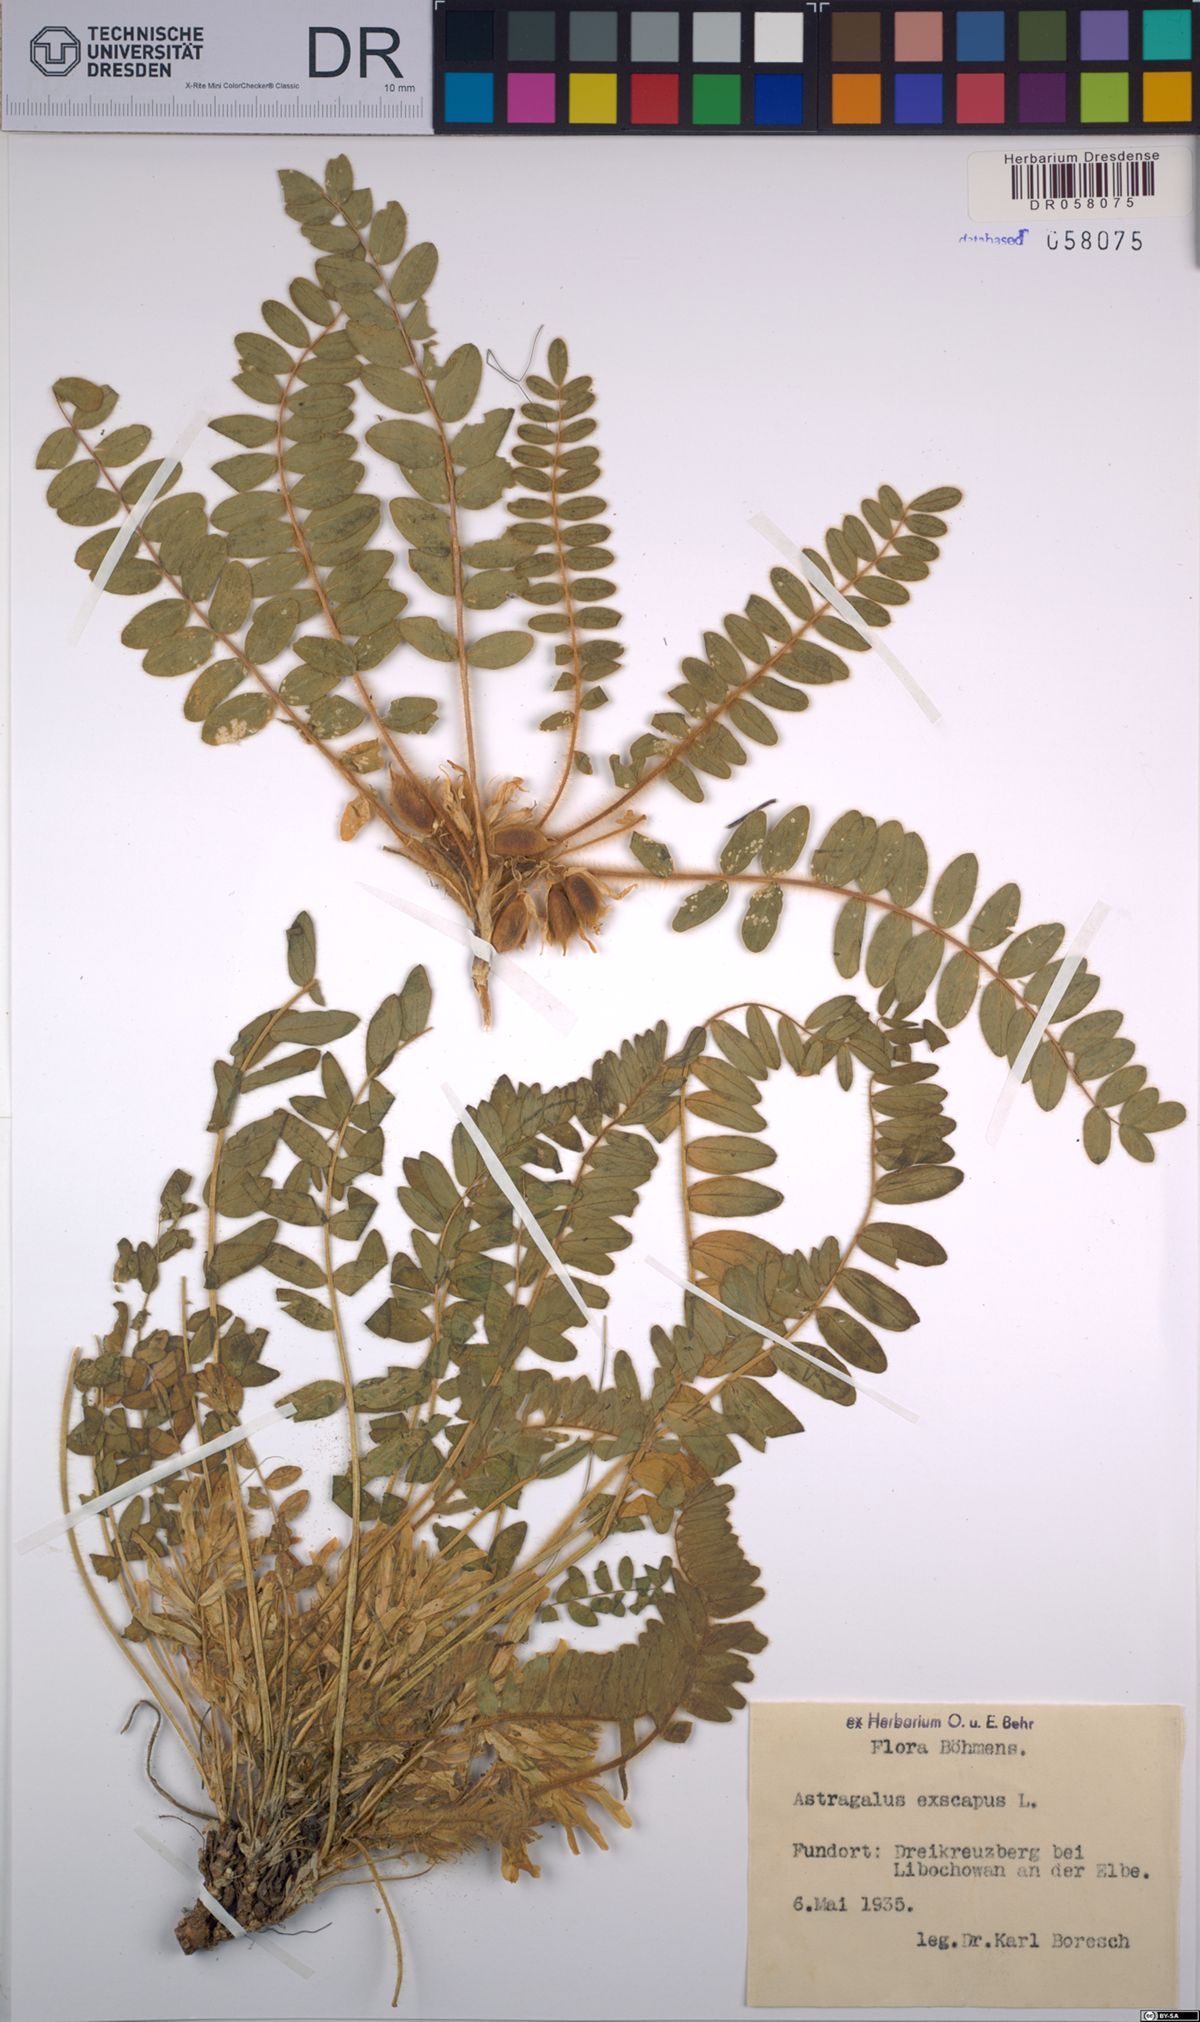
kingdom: Plantae
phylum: Tracheophyta
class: Magnoliopsida
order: Fabales
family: Fabaceae
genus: Astragalus
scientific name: Astragalus exscapus
